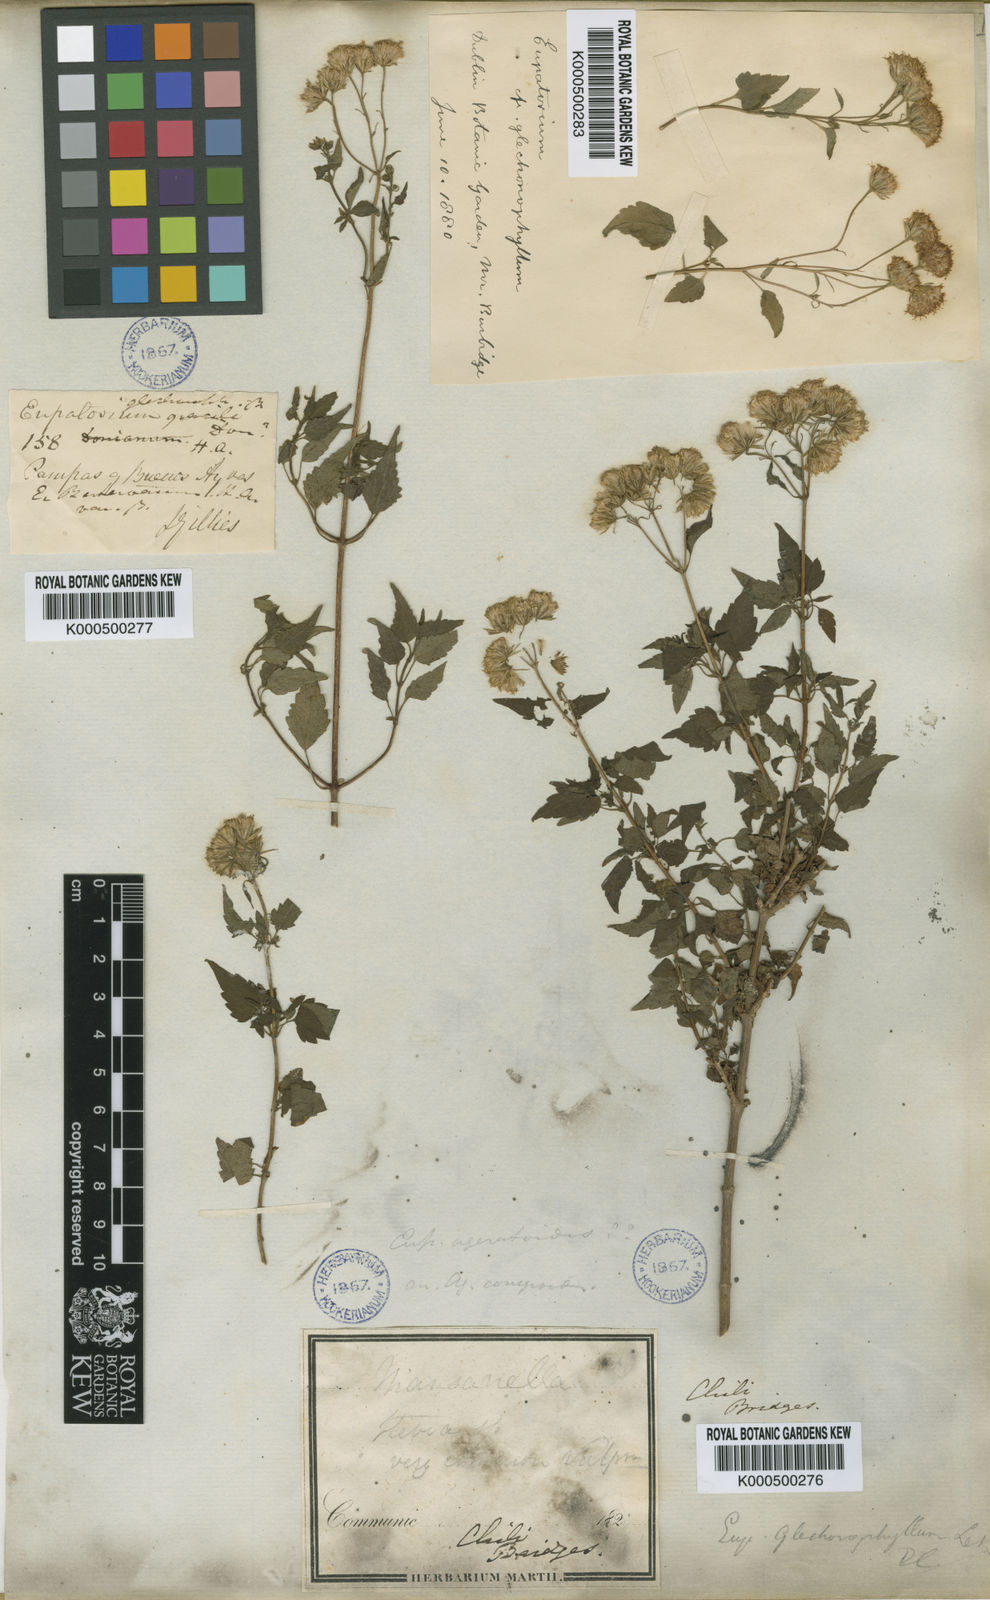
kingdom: Plantae
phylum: Tracheophyta
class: Magnoliopsida
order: Asterales
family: Asteraceae
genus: Ageratina
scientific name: Ageratina glechonophylla
